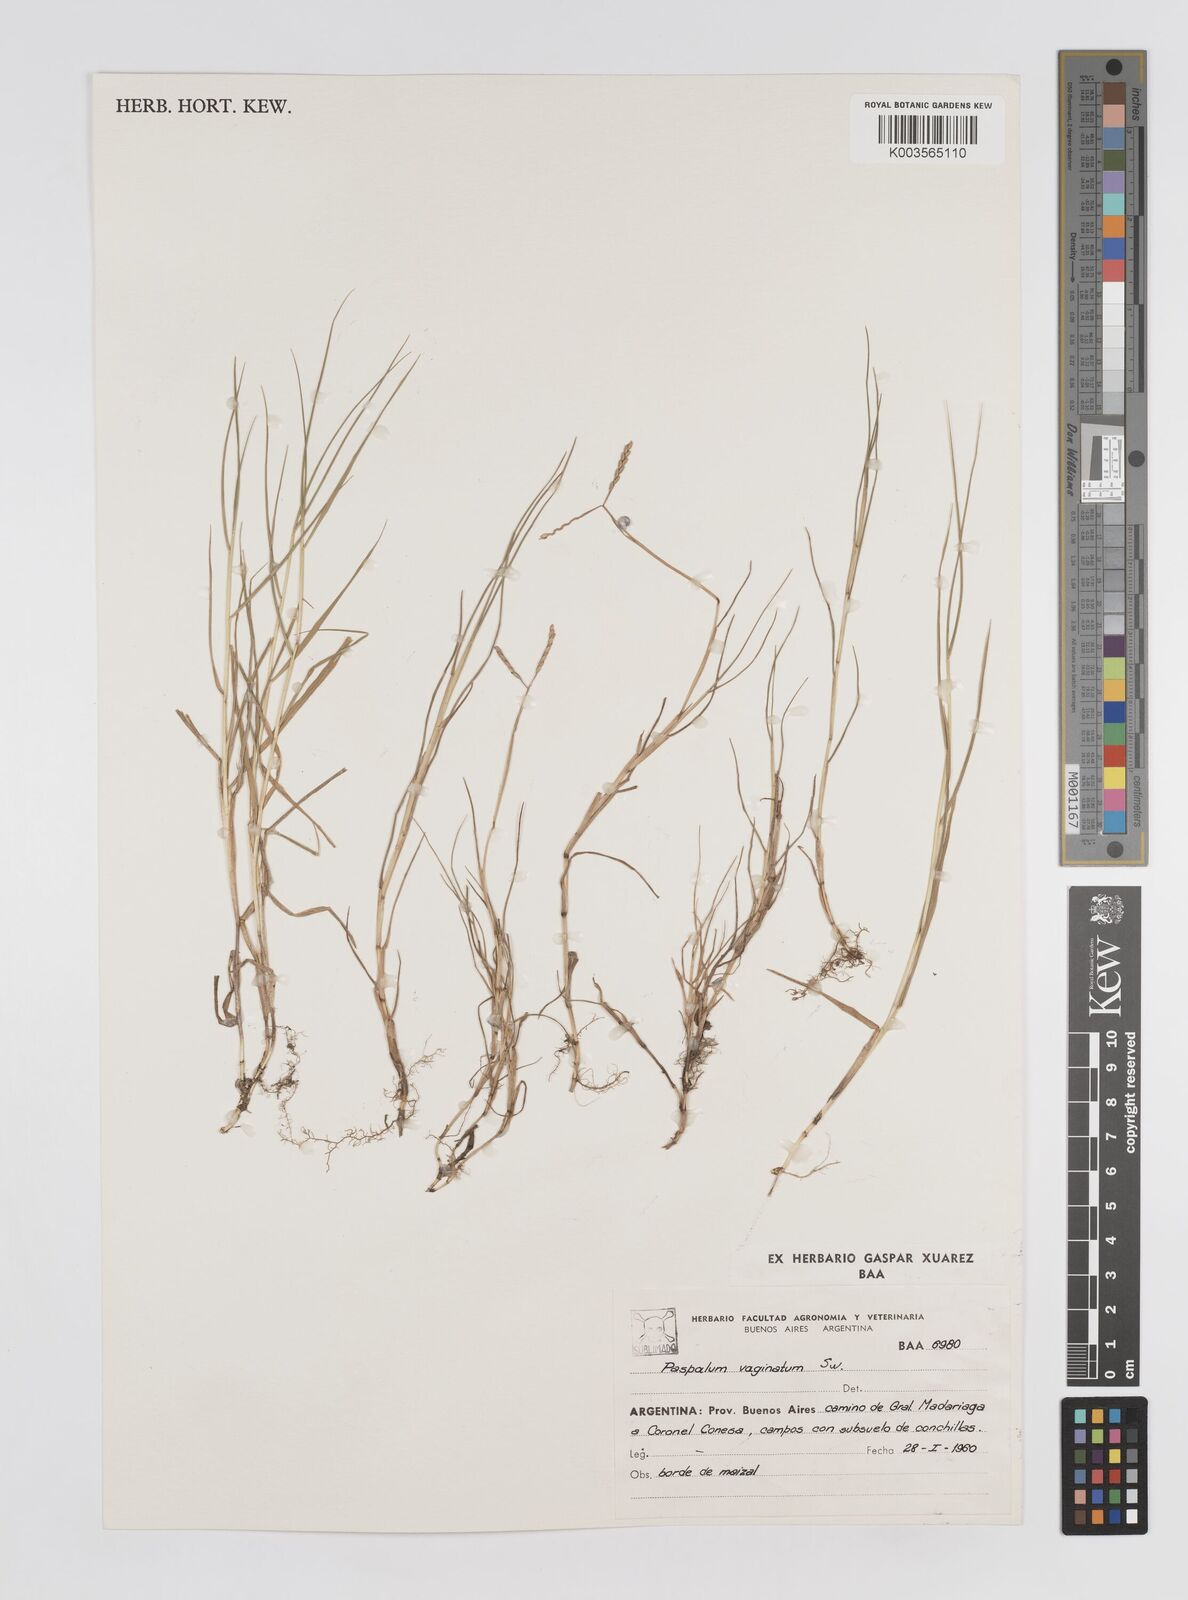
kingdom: Plantae
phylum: Tracheophyta
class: Liliopsida
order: Poales
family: Poaceae
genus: Paspalum
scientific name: Paspalum vaginatum
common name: Seashore paspalum
